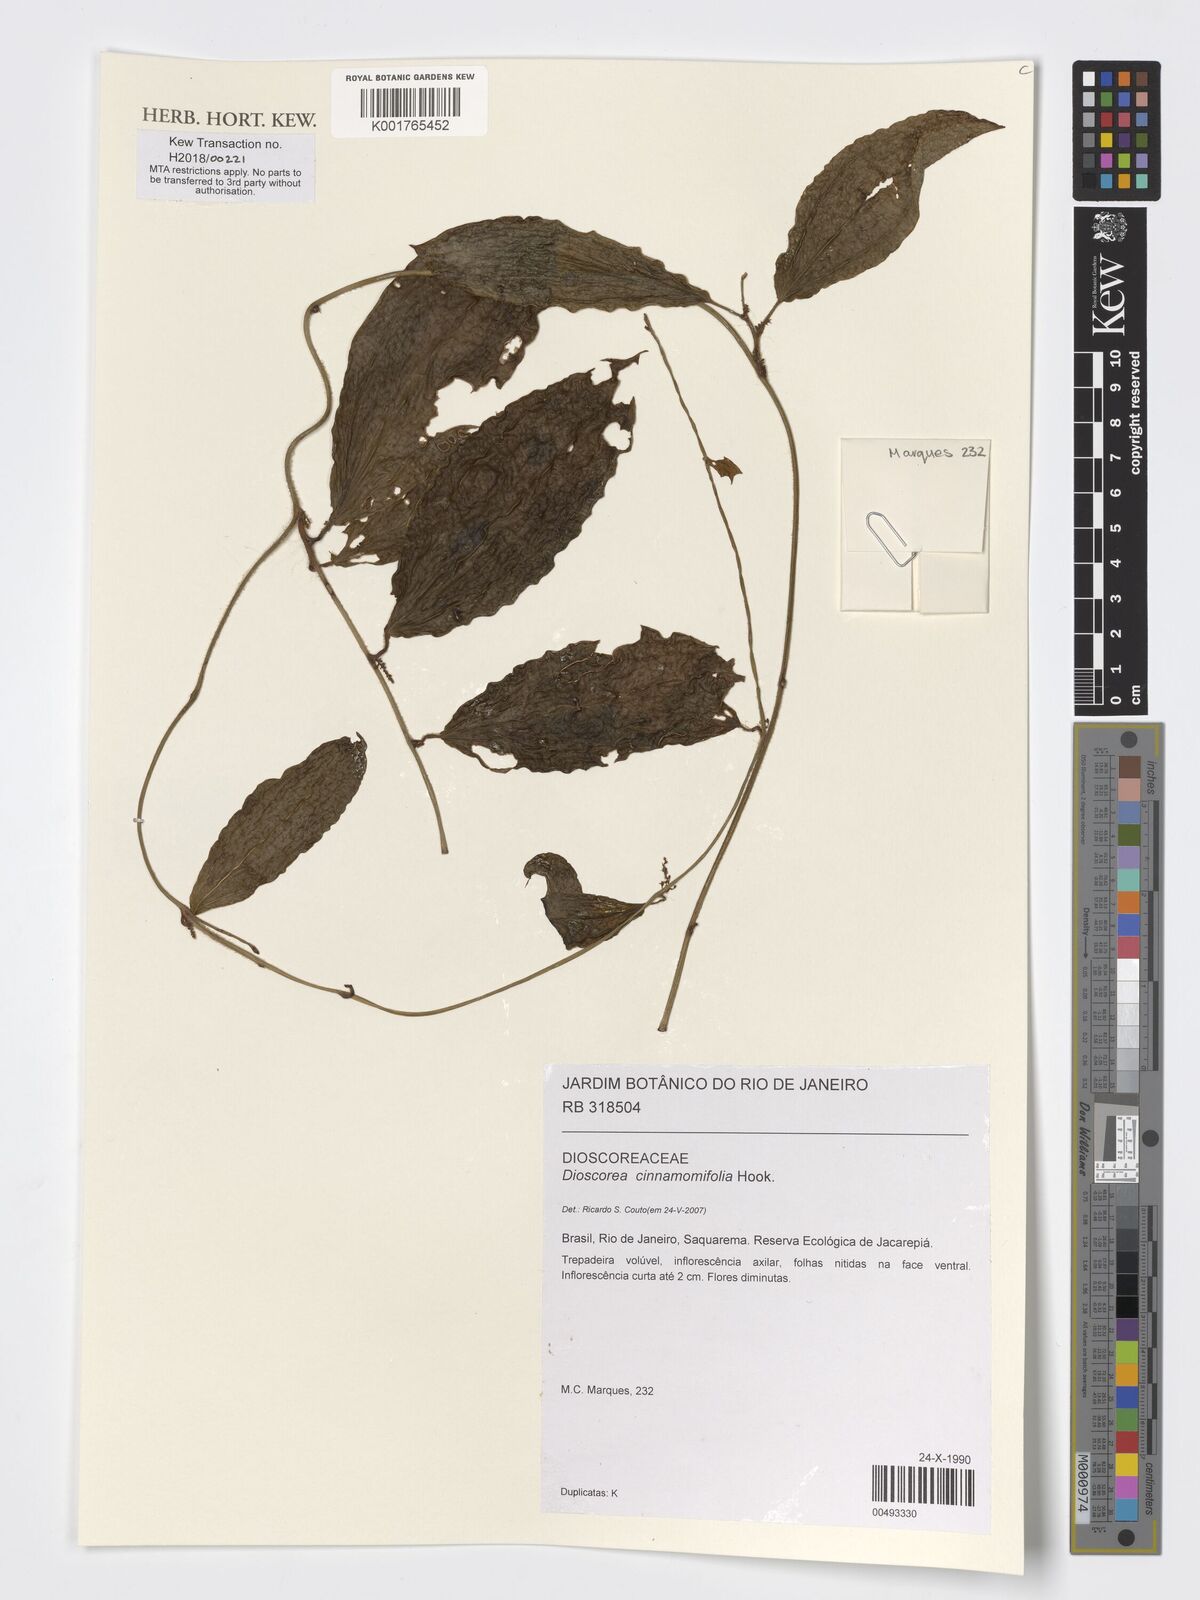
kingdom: Plantae
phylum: Tracheophyta
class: Liliopsida
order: Dioscoreales
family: Dioscoreaceae
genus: Dioscorea
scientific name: Dioscorea cinnamomifolia
